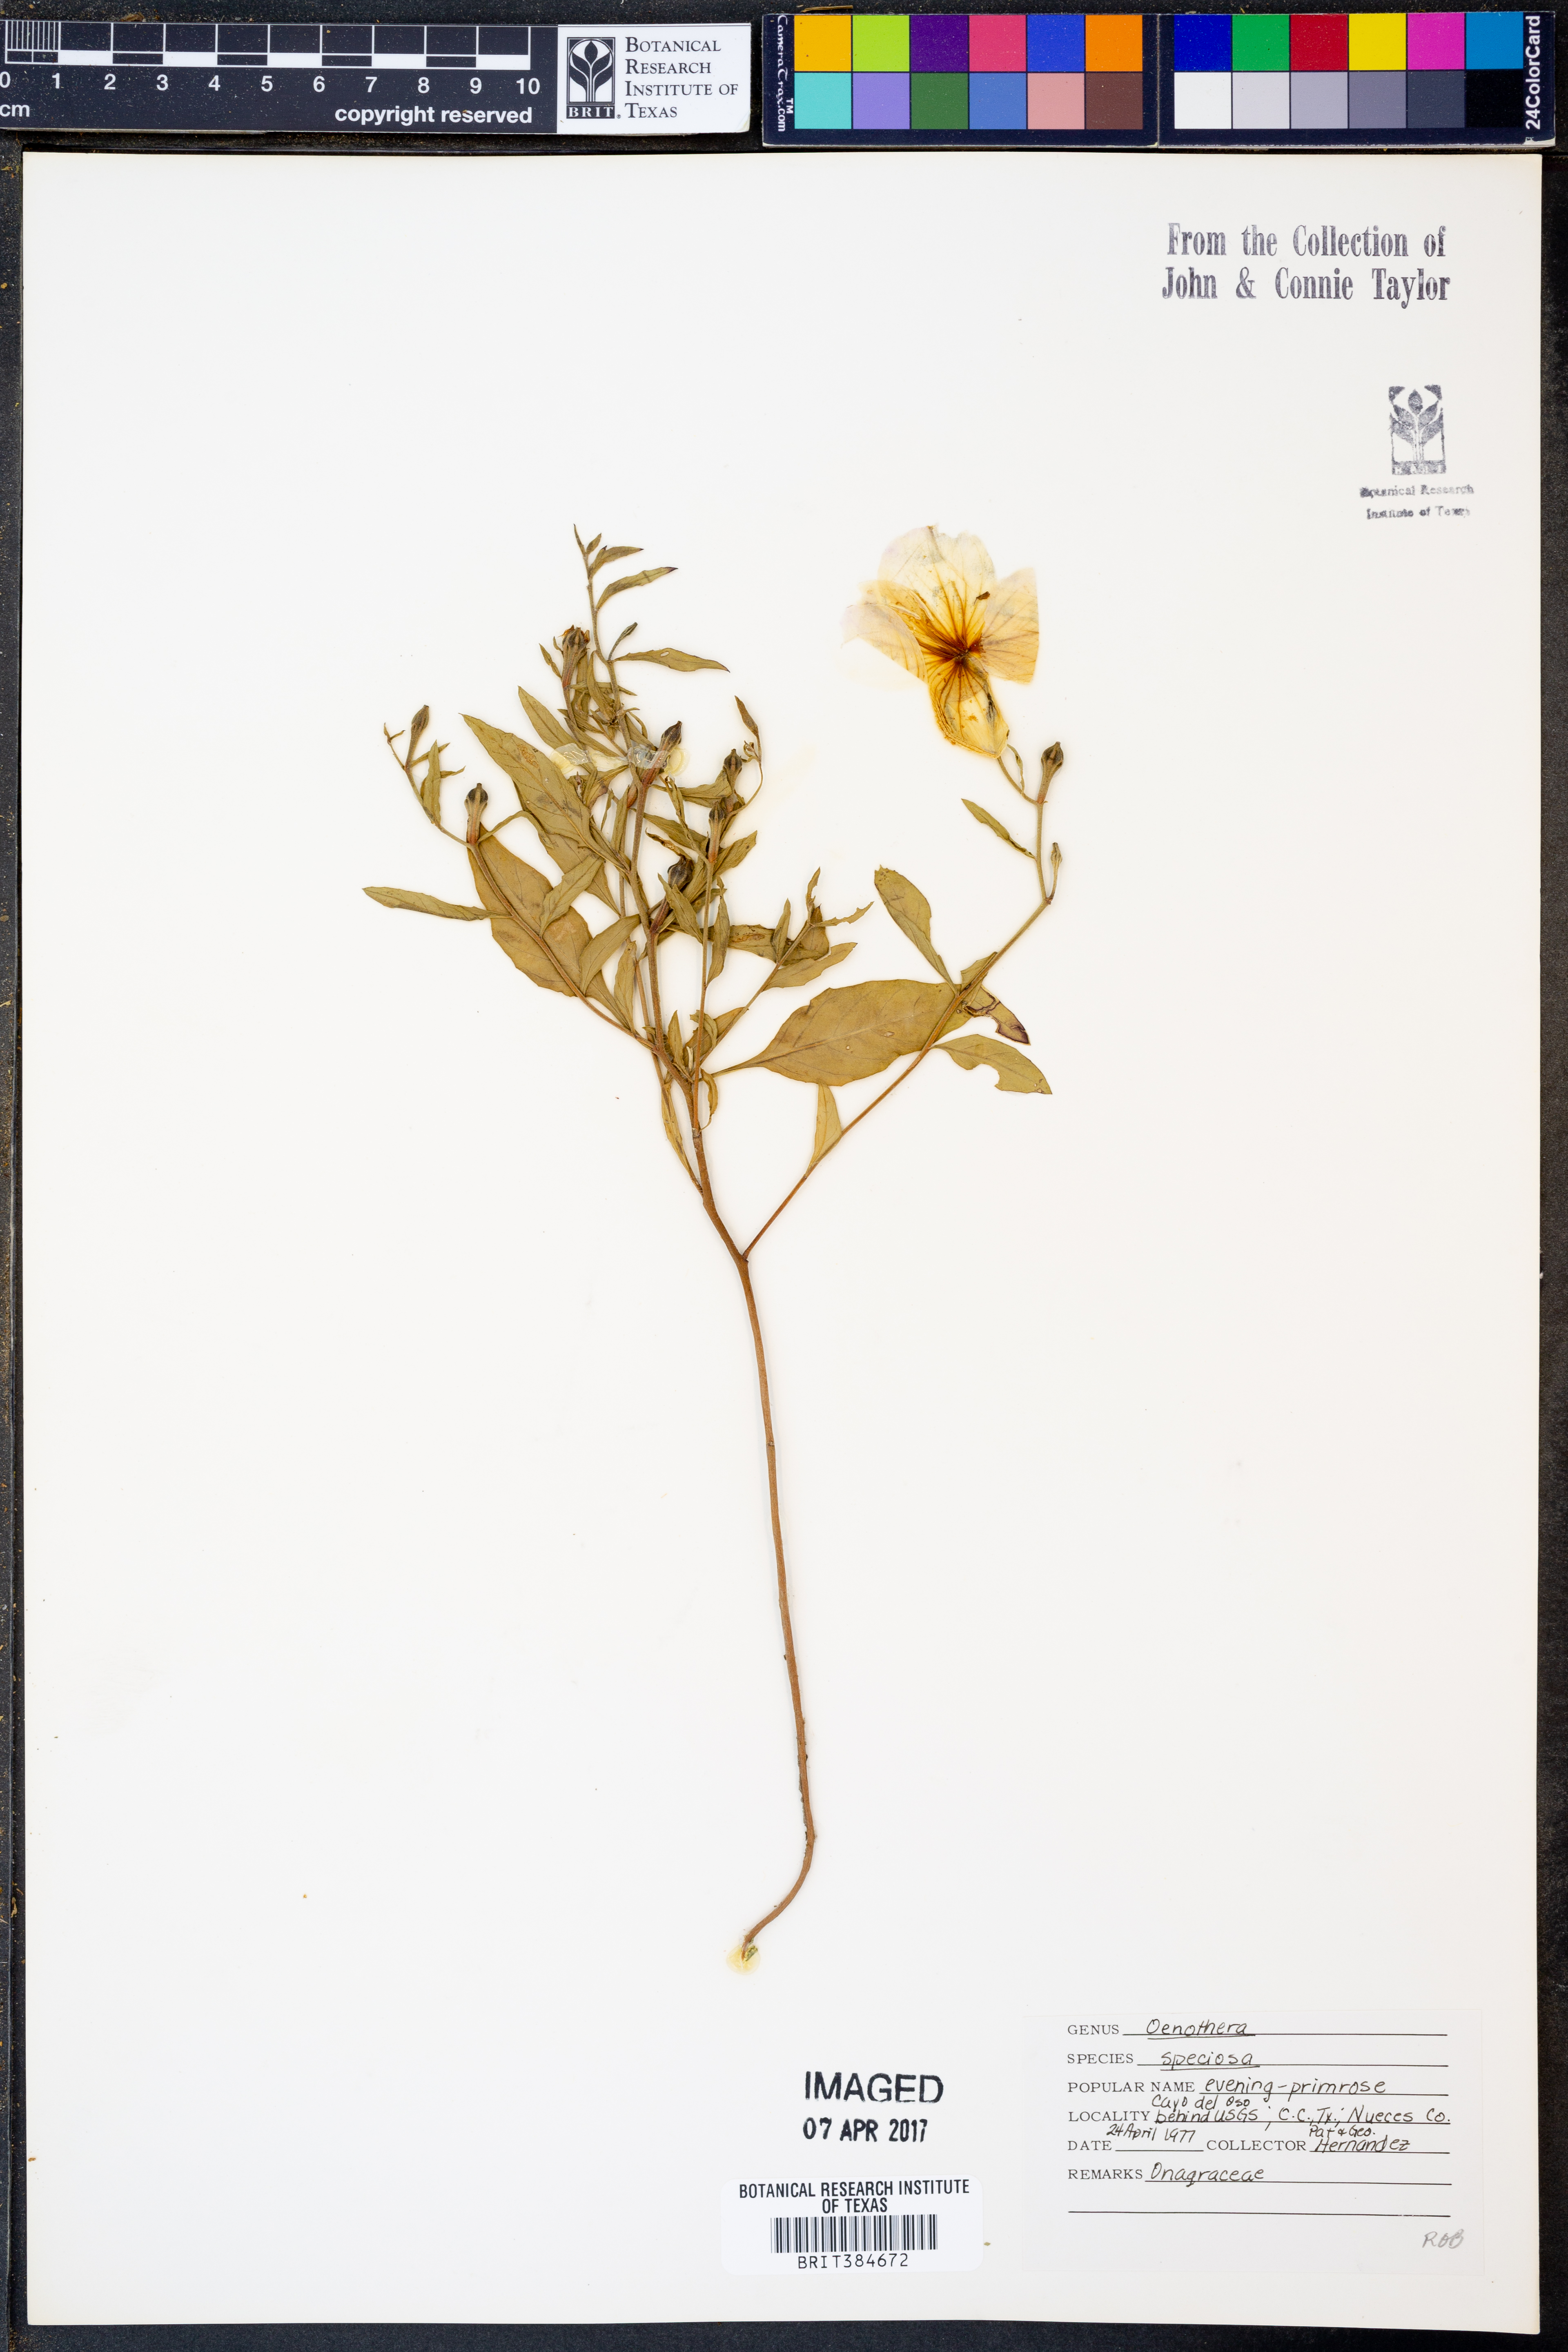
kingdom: Plantae
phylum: Tracheophyta
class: Magnoliopsida
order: Myrtales
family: Onagraceae
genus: Oenothera
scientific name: Oenothera speciosa
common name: White evening-primrose
